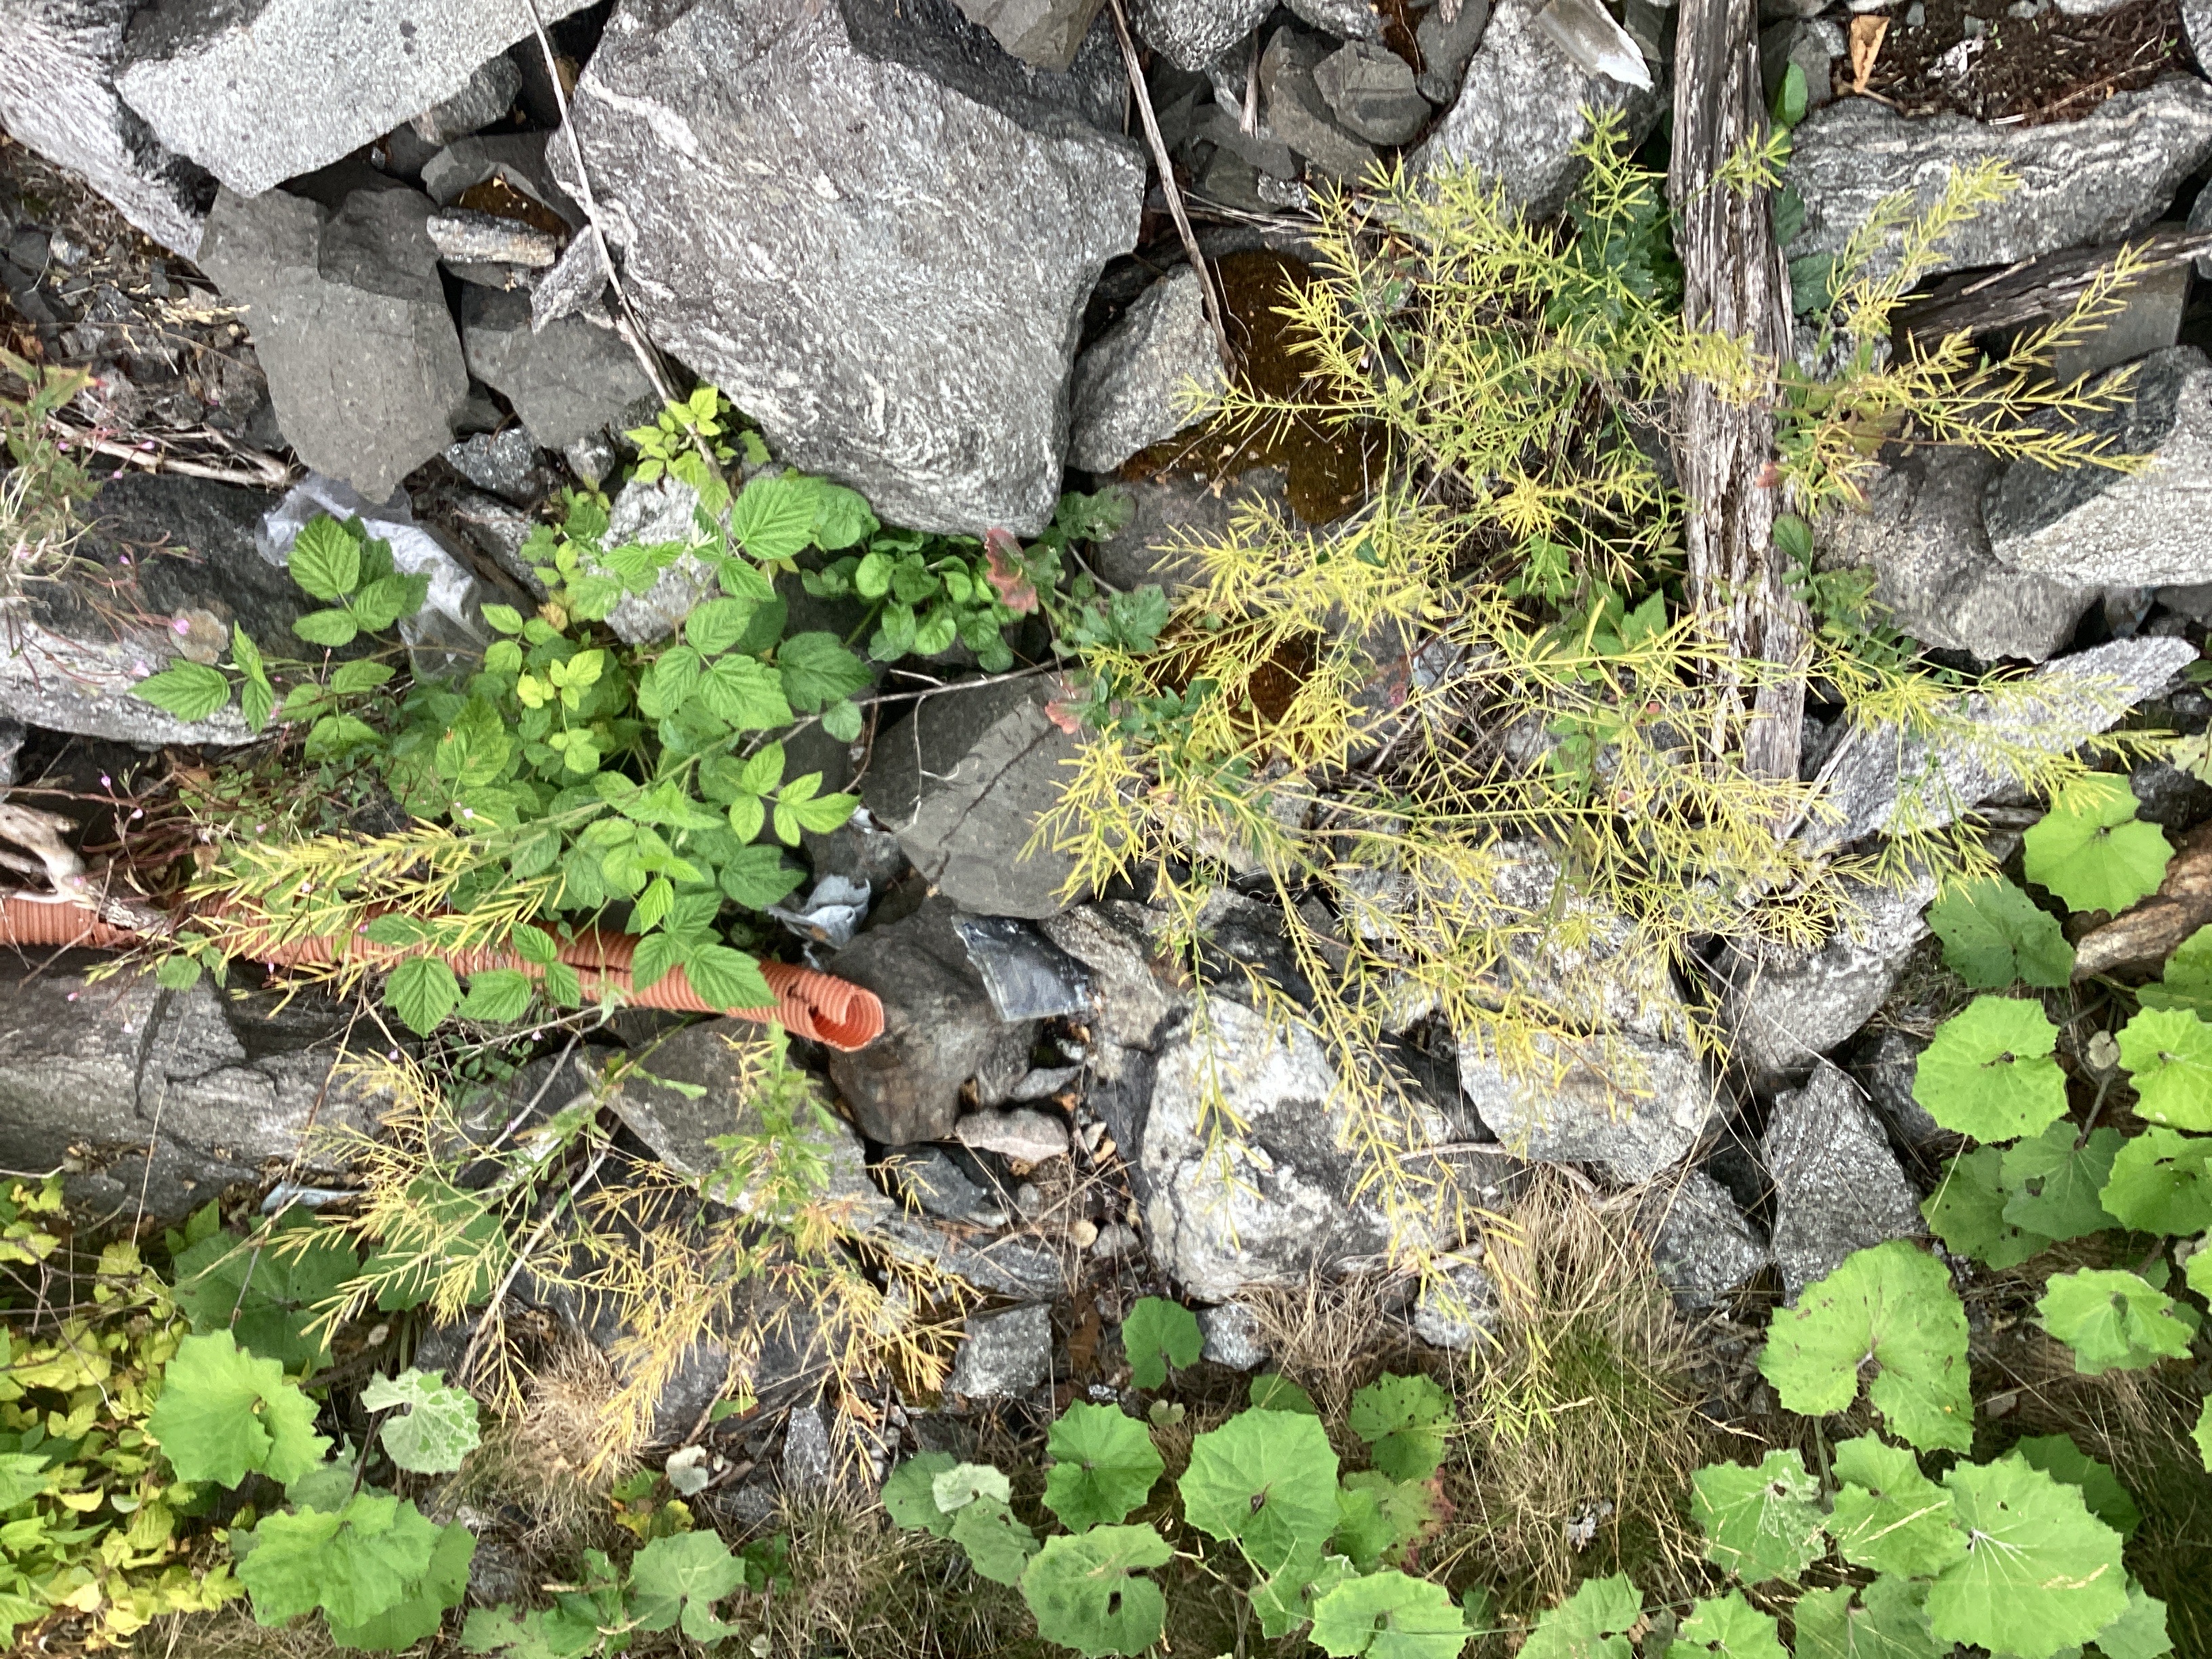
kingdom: Plantae
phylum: Tracheophyta
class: Magnoliopsida
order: Brassicales
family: Brassicaceae
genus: Barbarea
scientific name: Barbarea vulgaris
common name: vinterkarse
